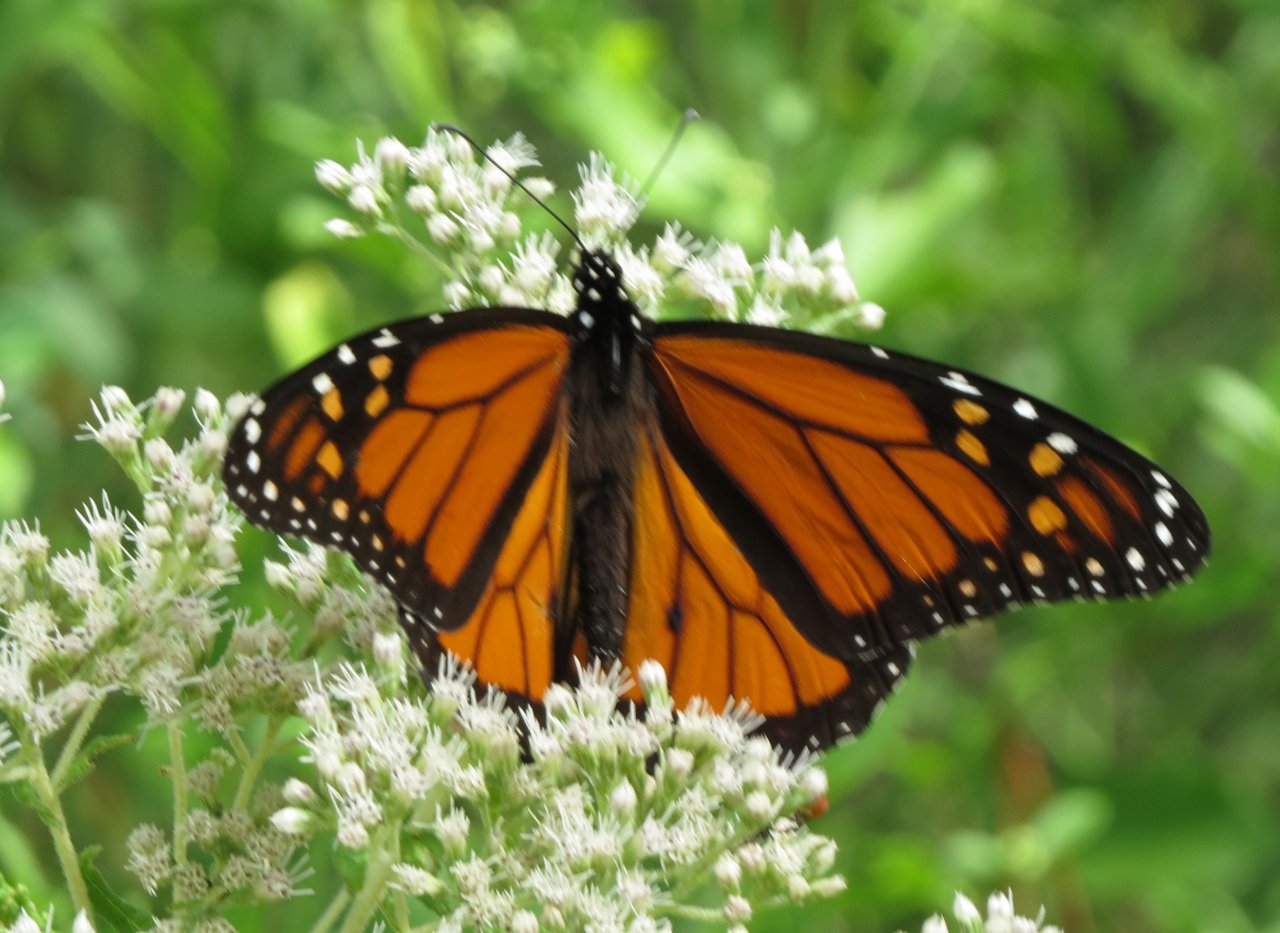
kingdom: Animalia
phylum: Arthropoda
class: Insecta
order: Lepidoptera
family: Nymphalidae
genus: Danaus
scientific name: Danaus plexippus
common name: Monarch
